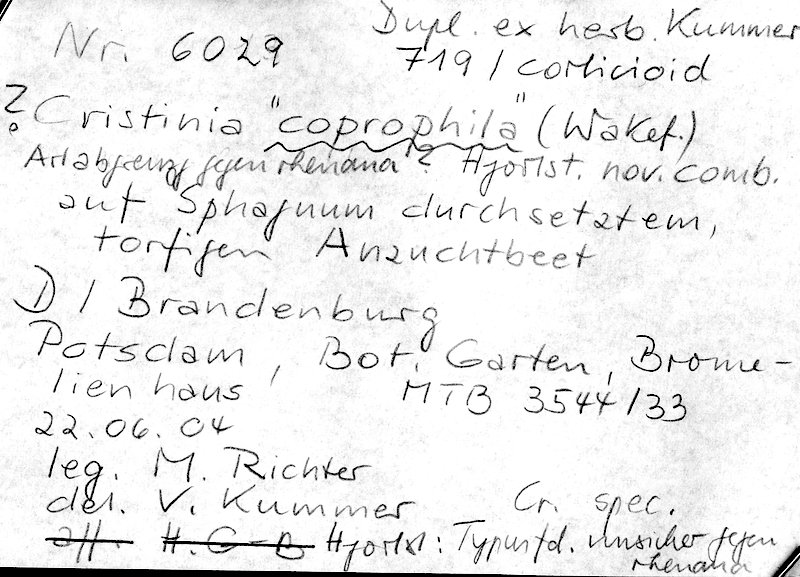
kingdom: Fungi
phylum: Basidiomycota
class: Agaricomycetes
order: Agaricales
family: Stephanosporaceae
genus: Cristinia
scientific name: Cristinia coprophila
